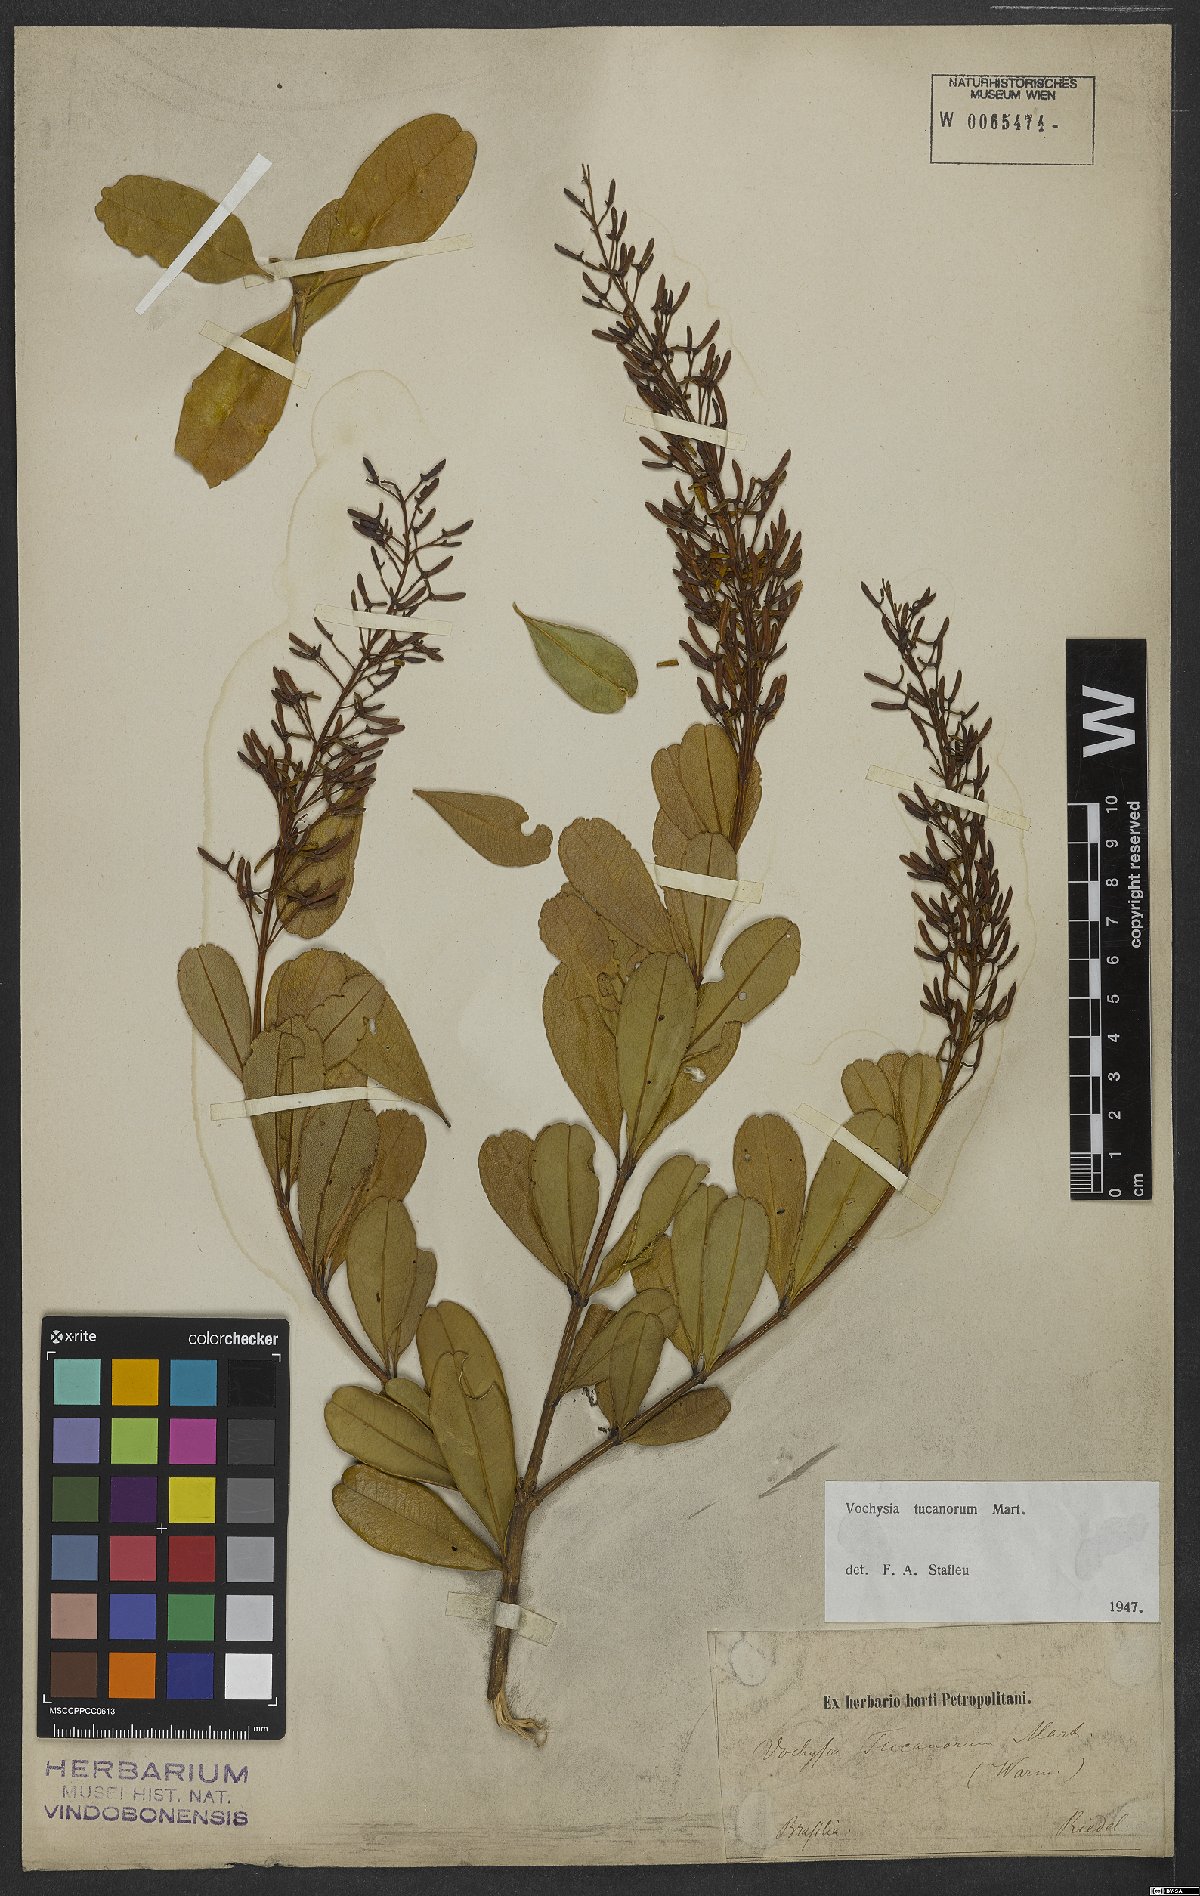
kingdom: Plantae
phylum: Tracheophyta
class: Magnoliopsida
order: Myrtales
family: Vochysiaceae
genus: Vochysia
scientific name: Vochysia tucanorum
